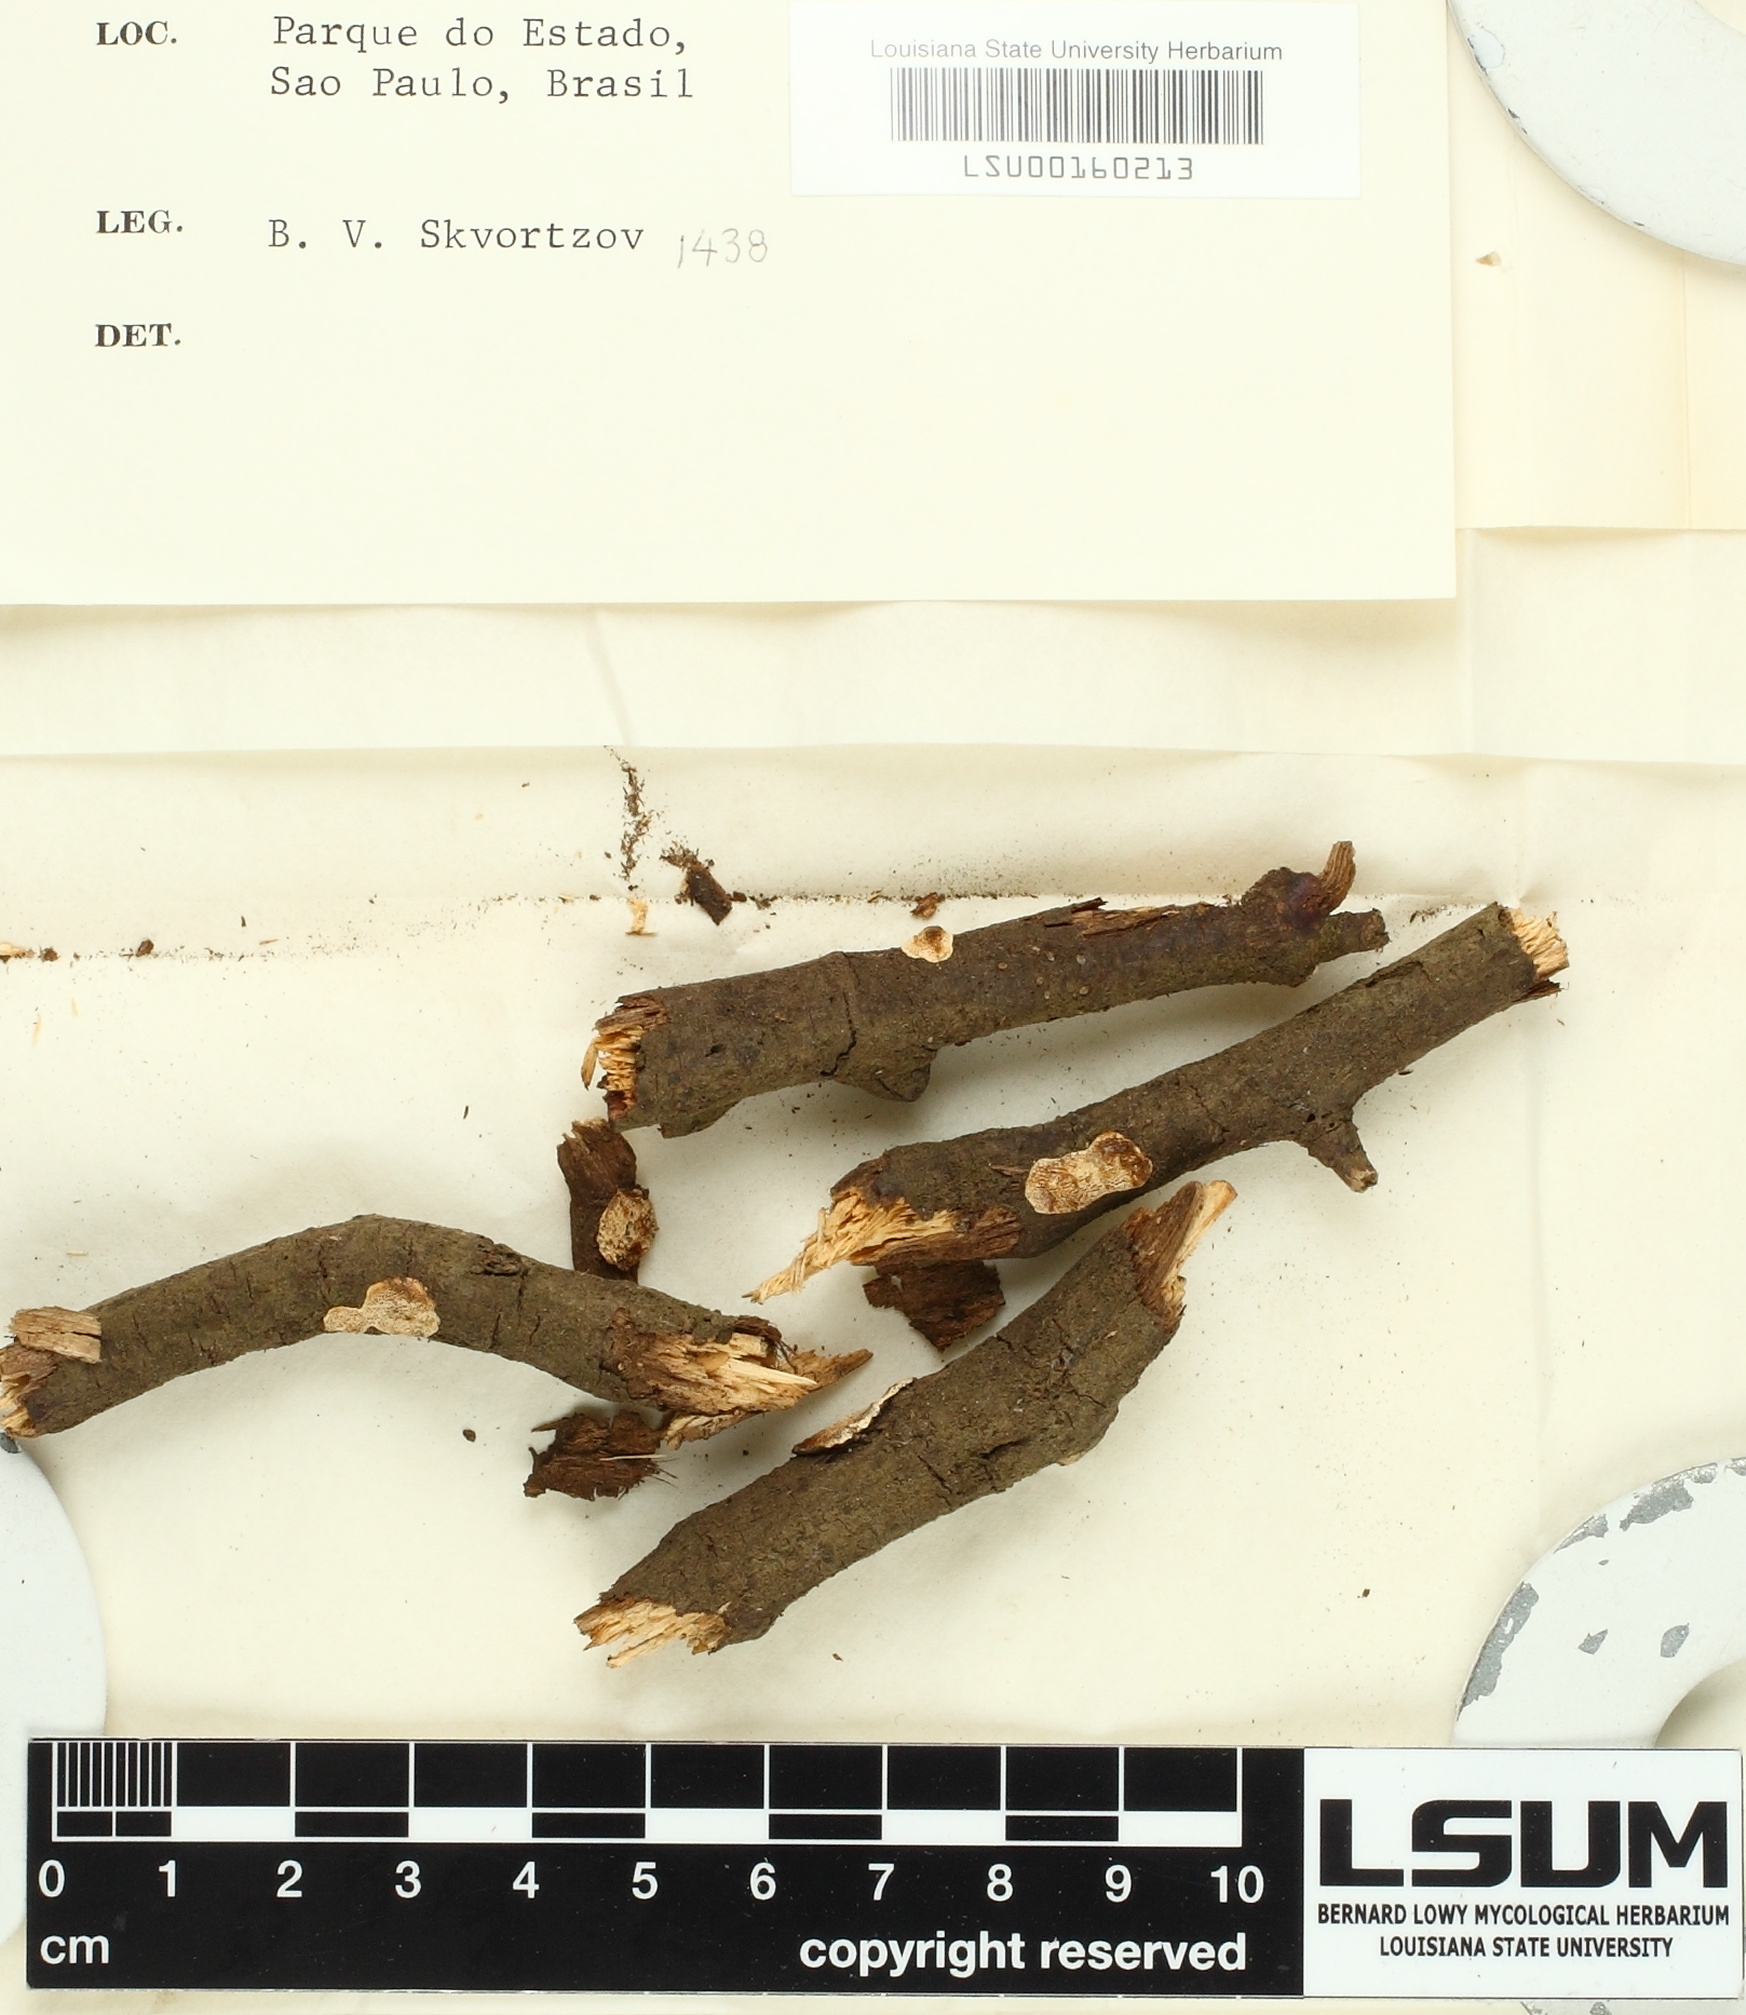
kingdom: Fungi
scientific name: Fungi
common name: Fungi
